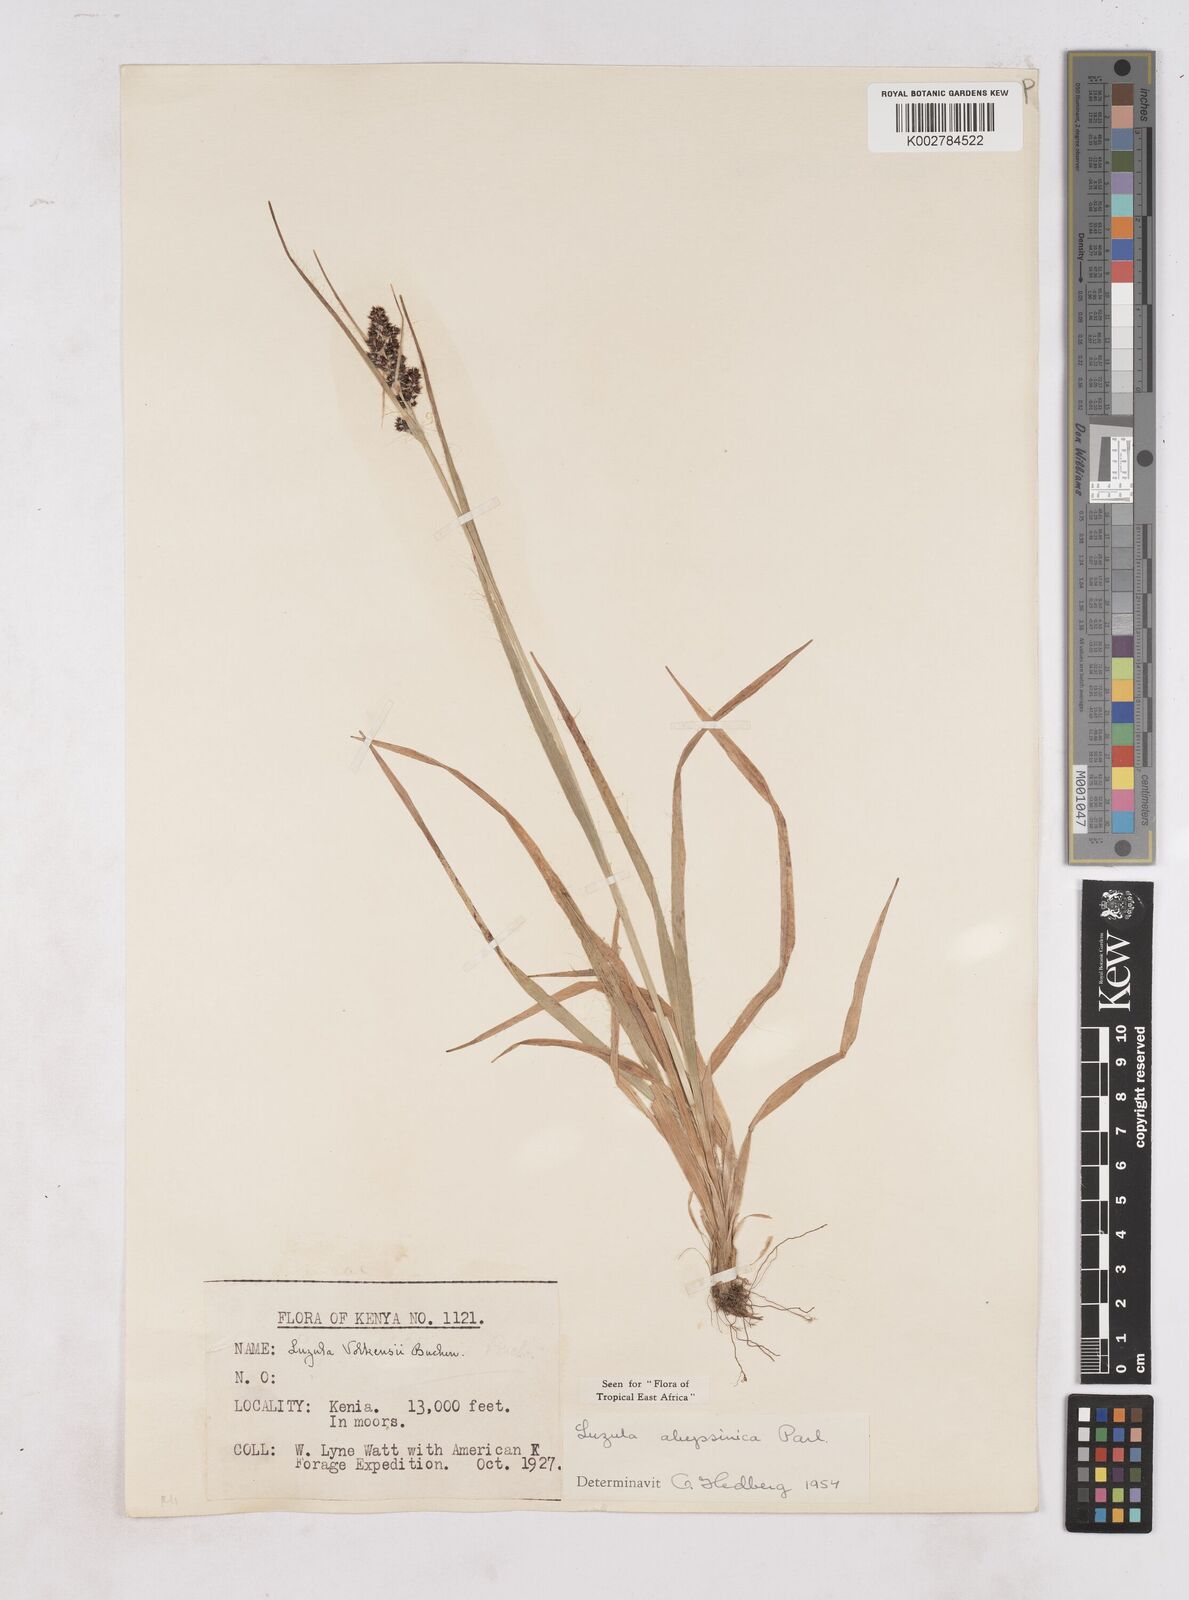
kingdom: Plantae
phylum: Tracheophyta
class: Liliopsida
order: Poales
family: Juncaceae
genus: Luzula
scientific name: Luzula abyssinica
